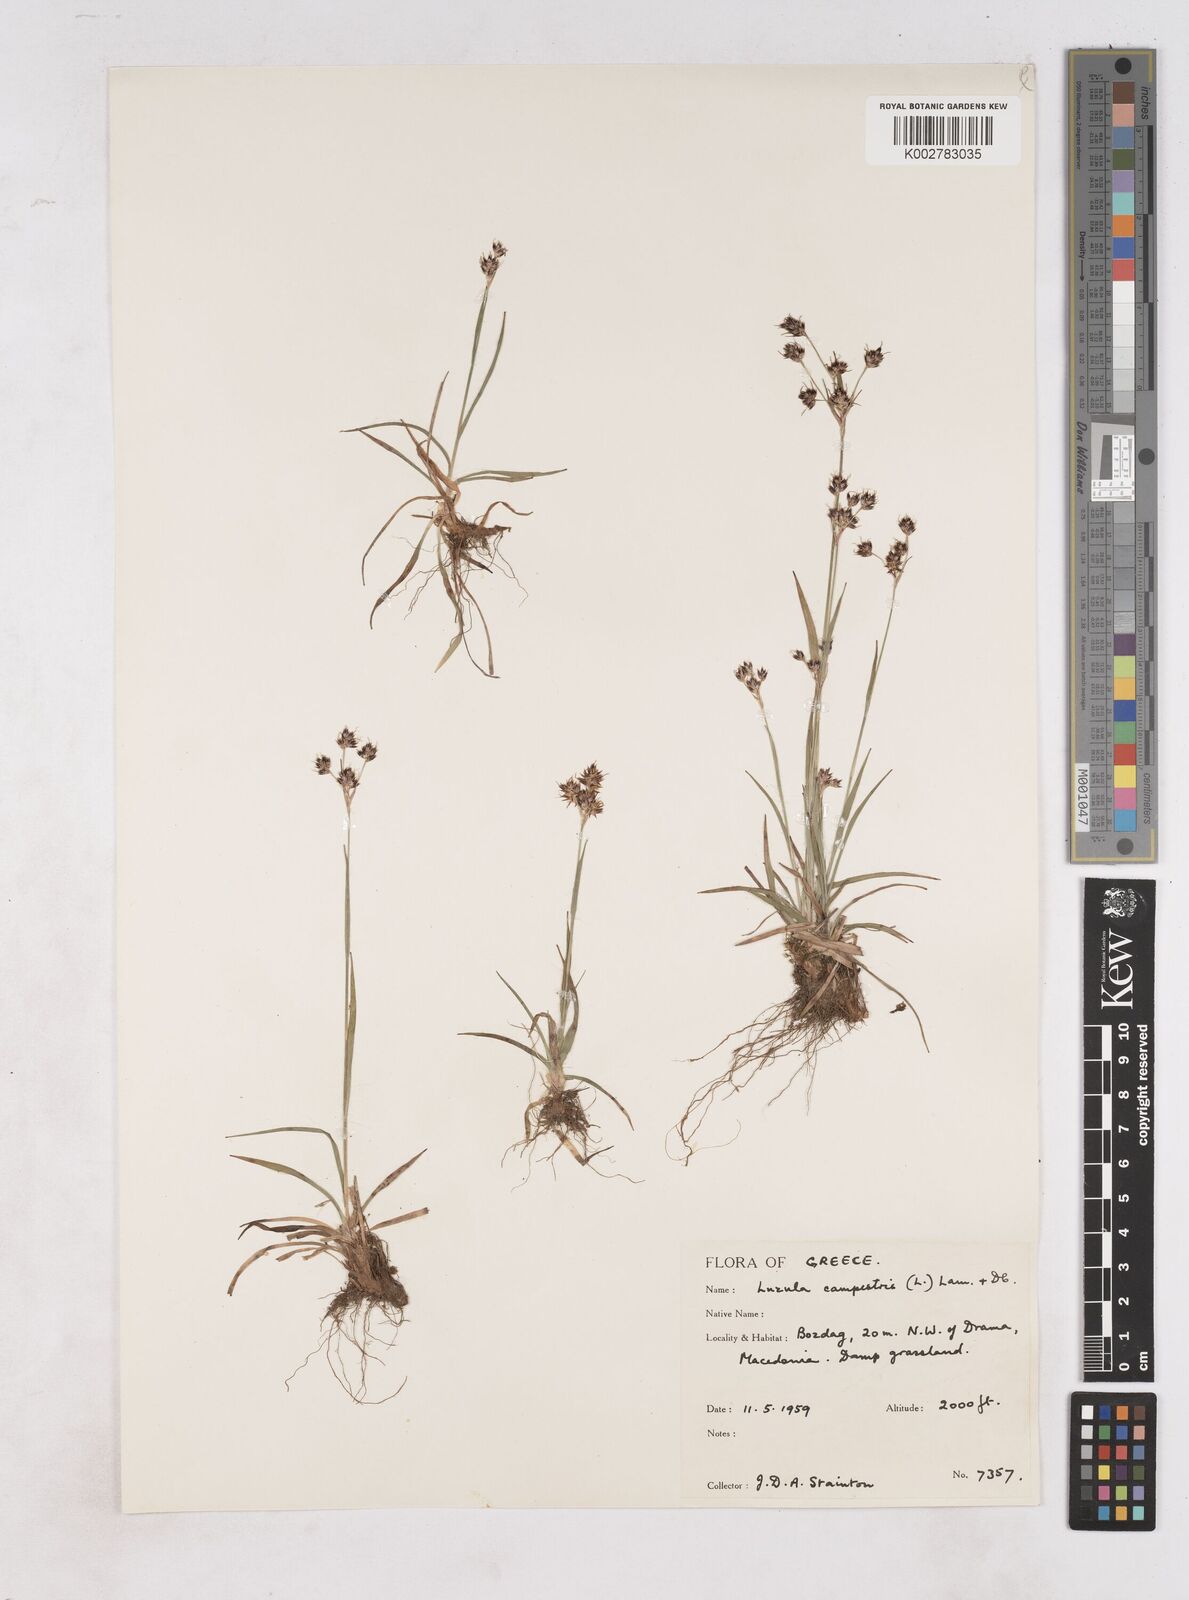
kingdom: Plantae
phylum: Tracheophyta
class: Liliopsida
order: Poales
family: Juncaceae
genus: Luzula
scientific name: Luzula campestris
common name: Field wood-rush
